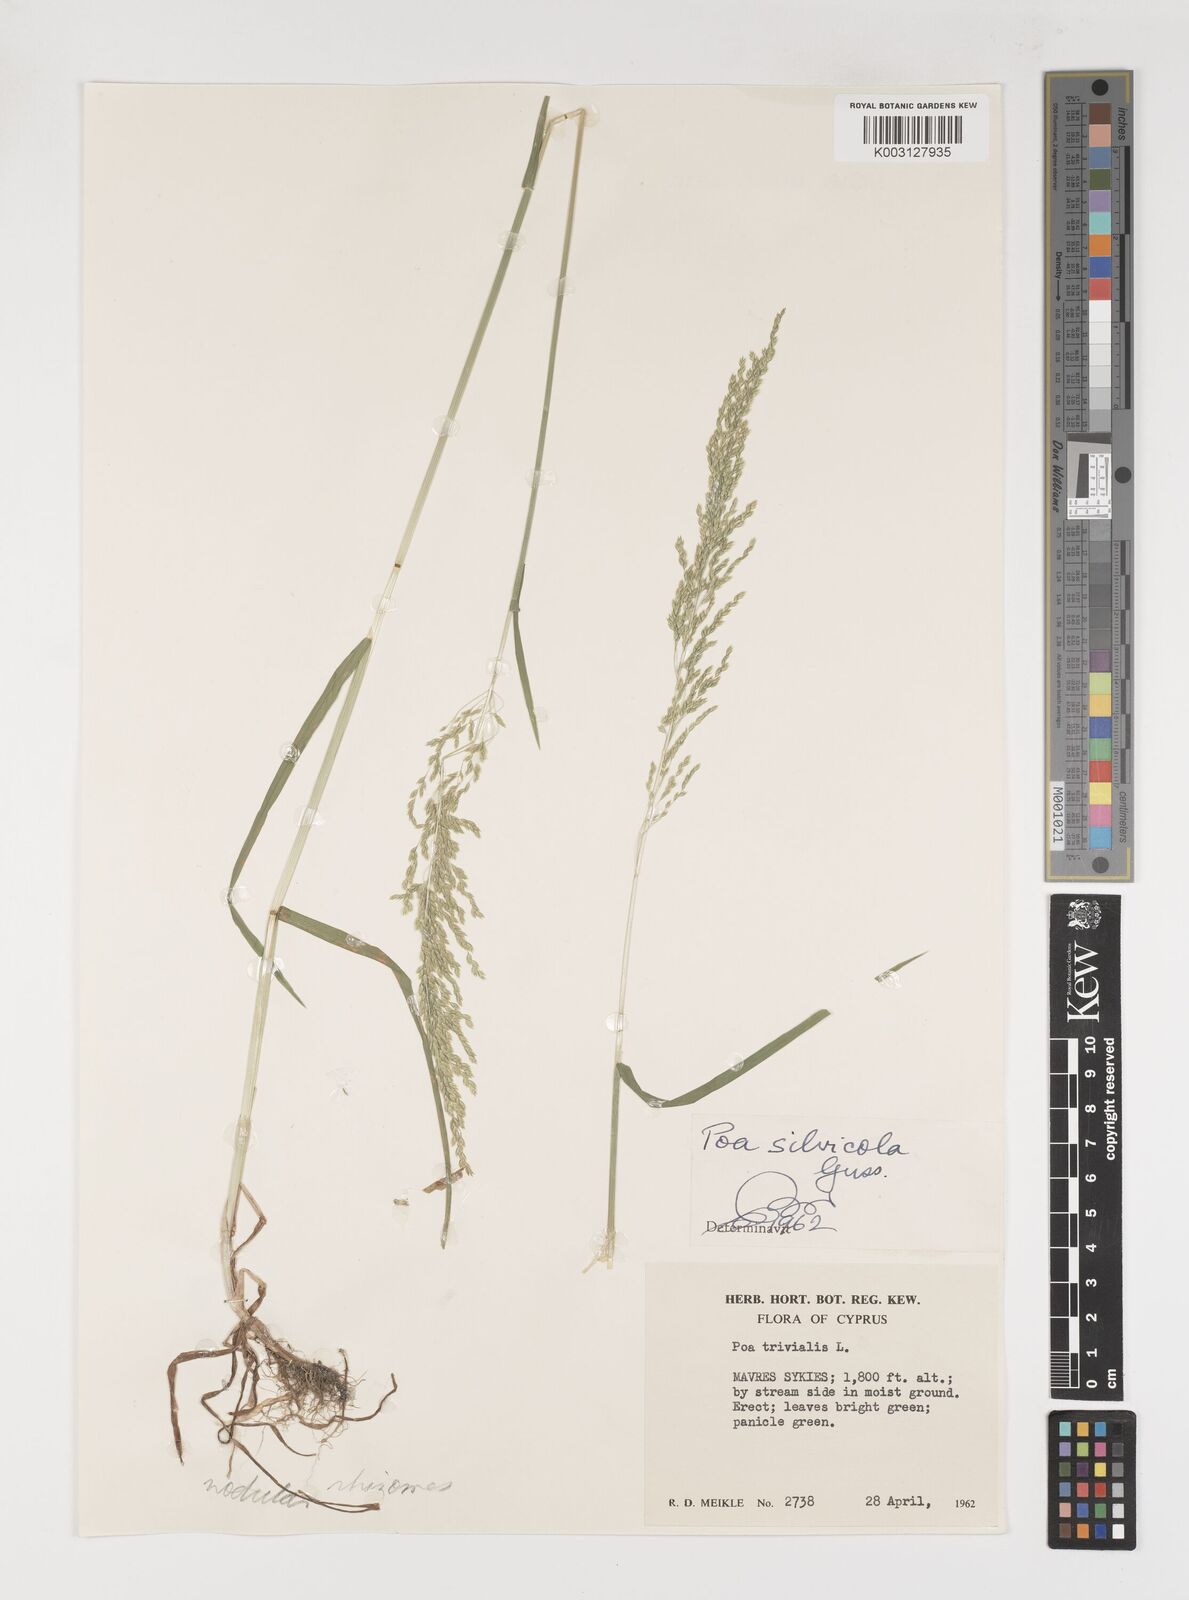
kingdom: Plantae
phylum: Tracheophyta
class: Liliopsida
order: Poales
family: Poaceae
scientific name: Poaceae
